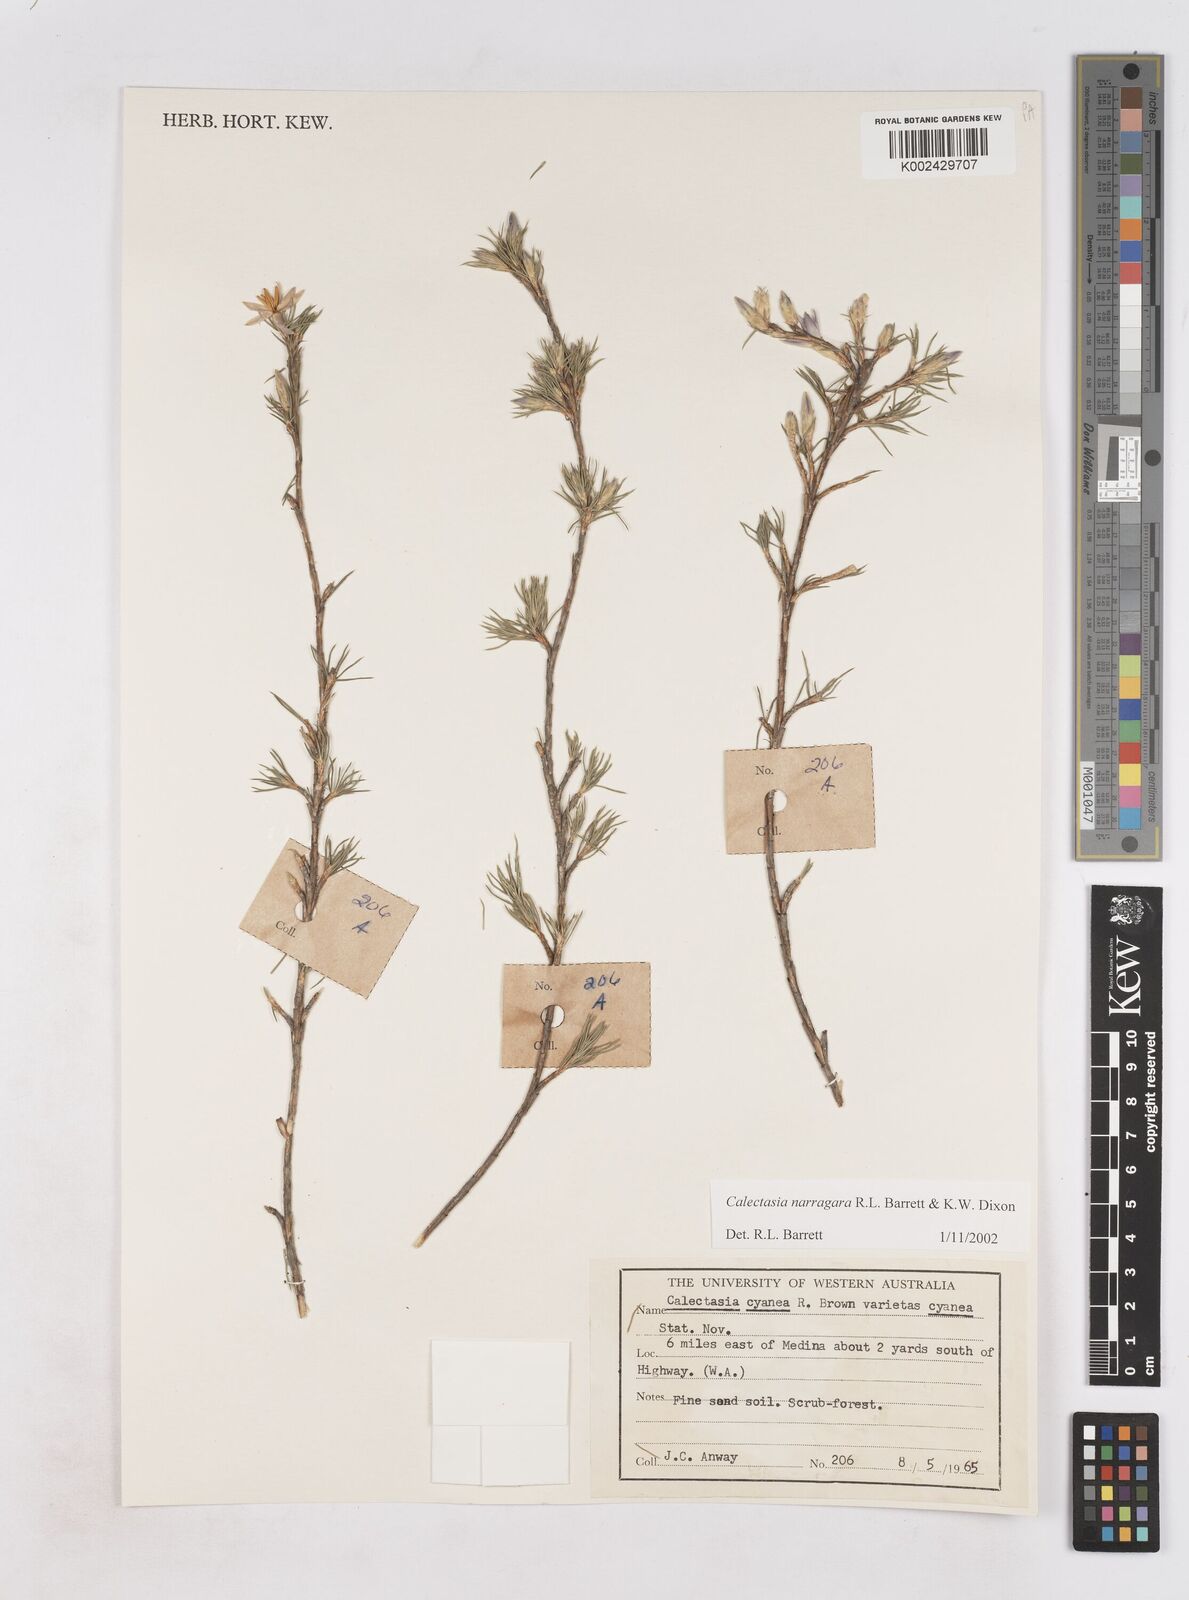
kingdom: Plantae
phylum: Tracheophyta
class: Liliopsida
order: Arecales
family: Dasypogonaceae
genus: Calectasia
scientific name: Calectasia narragara
